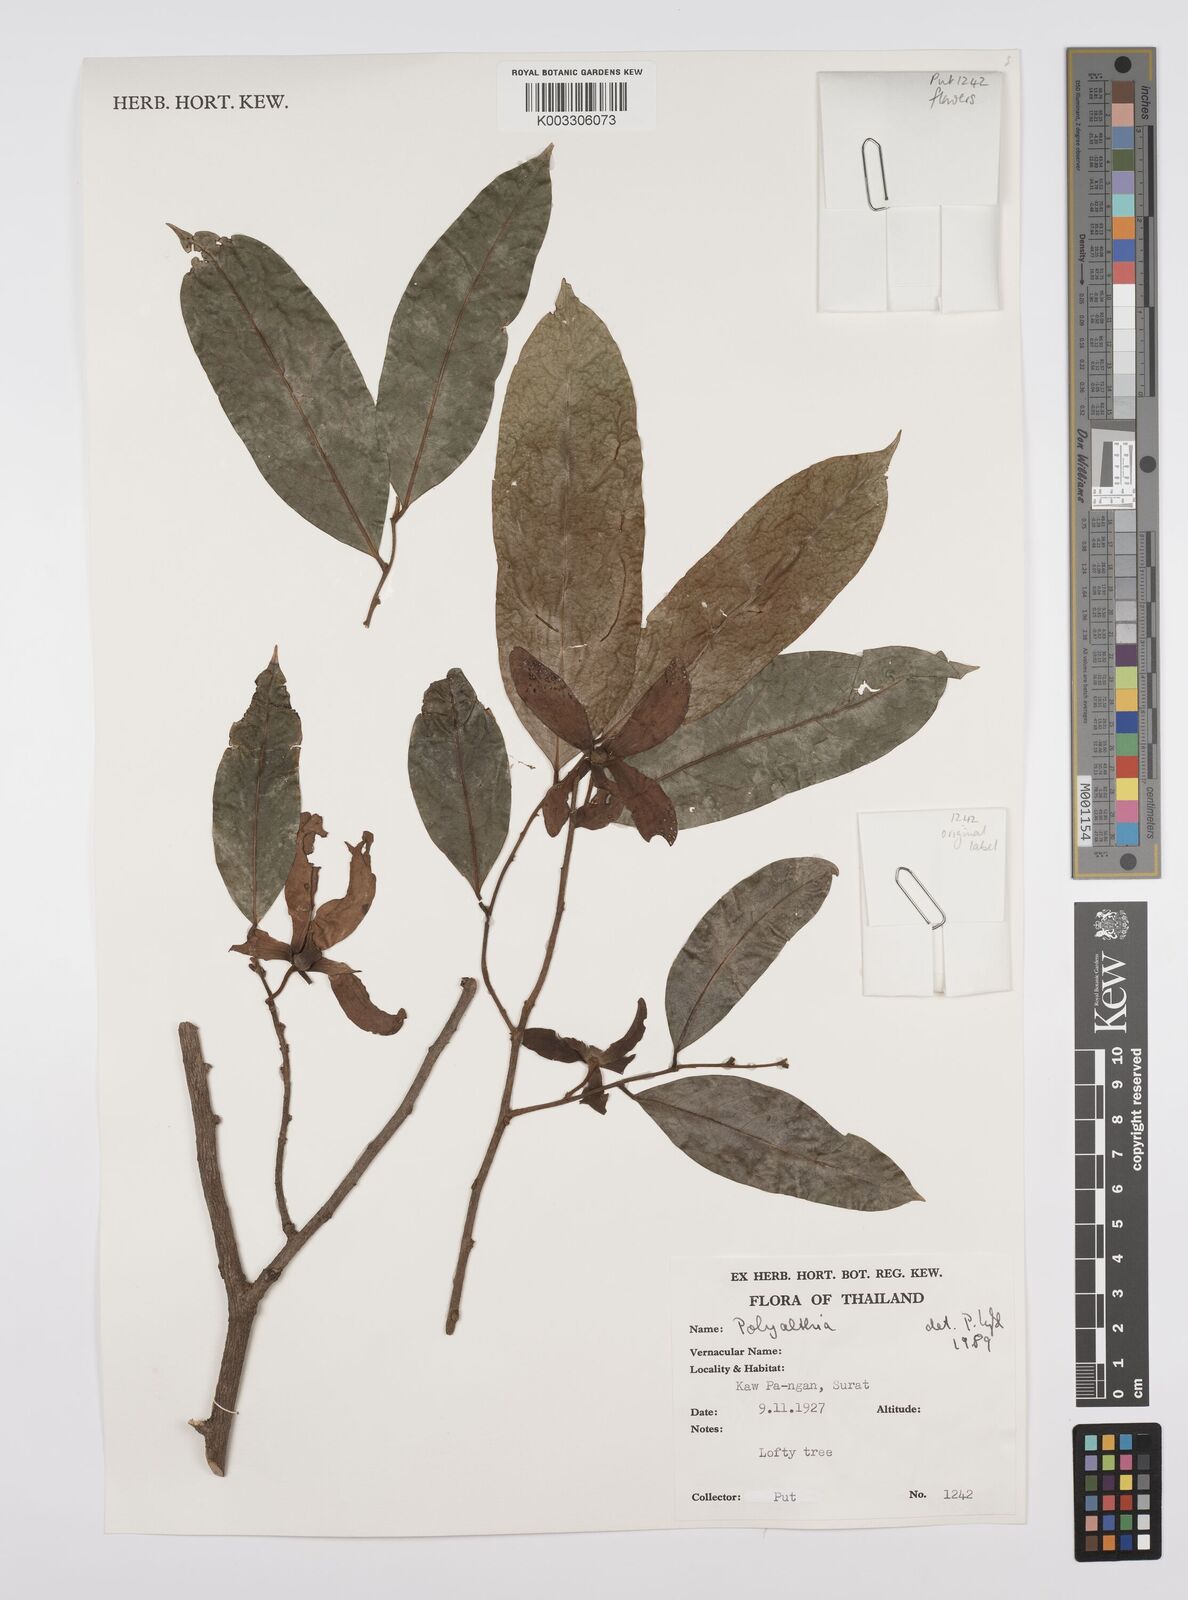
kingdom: Plantae
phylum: Tracheophyta
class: Magnoliopsida
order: Magnoliales
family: Annonaceae
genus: Huberantha
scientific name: Huberantha
